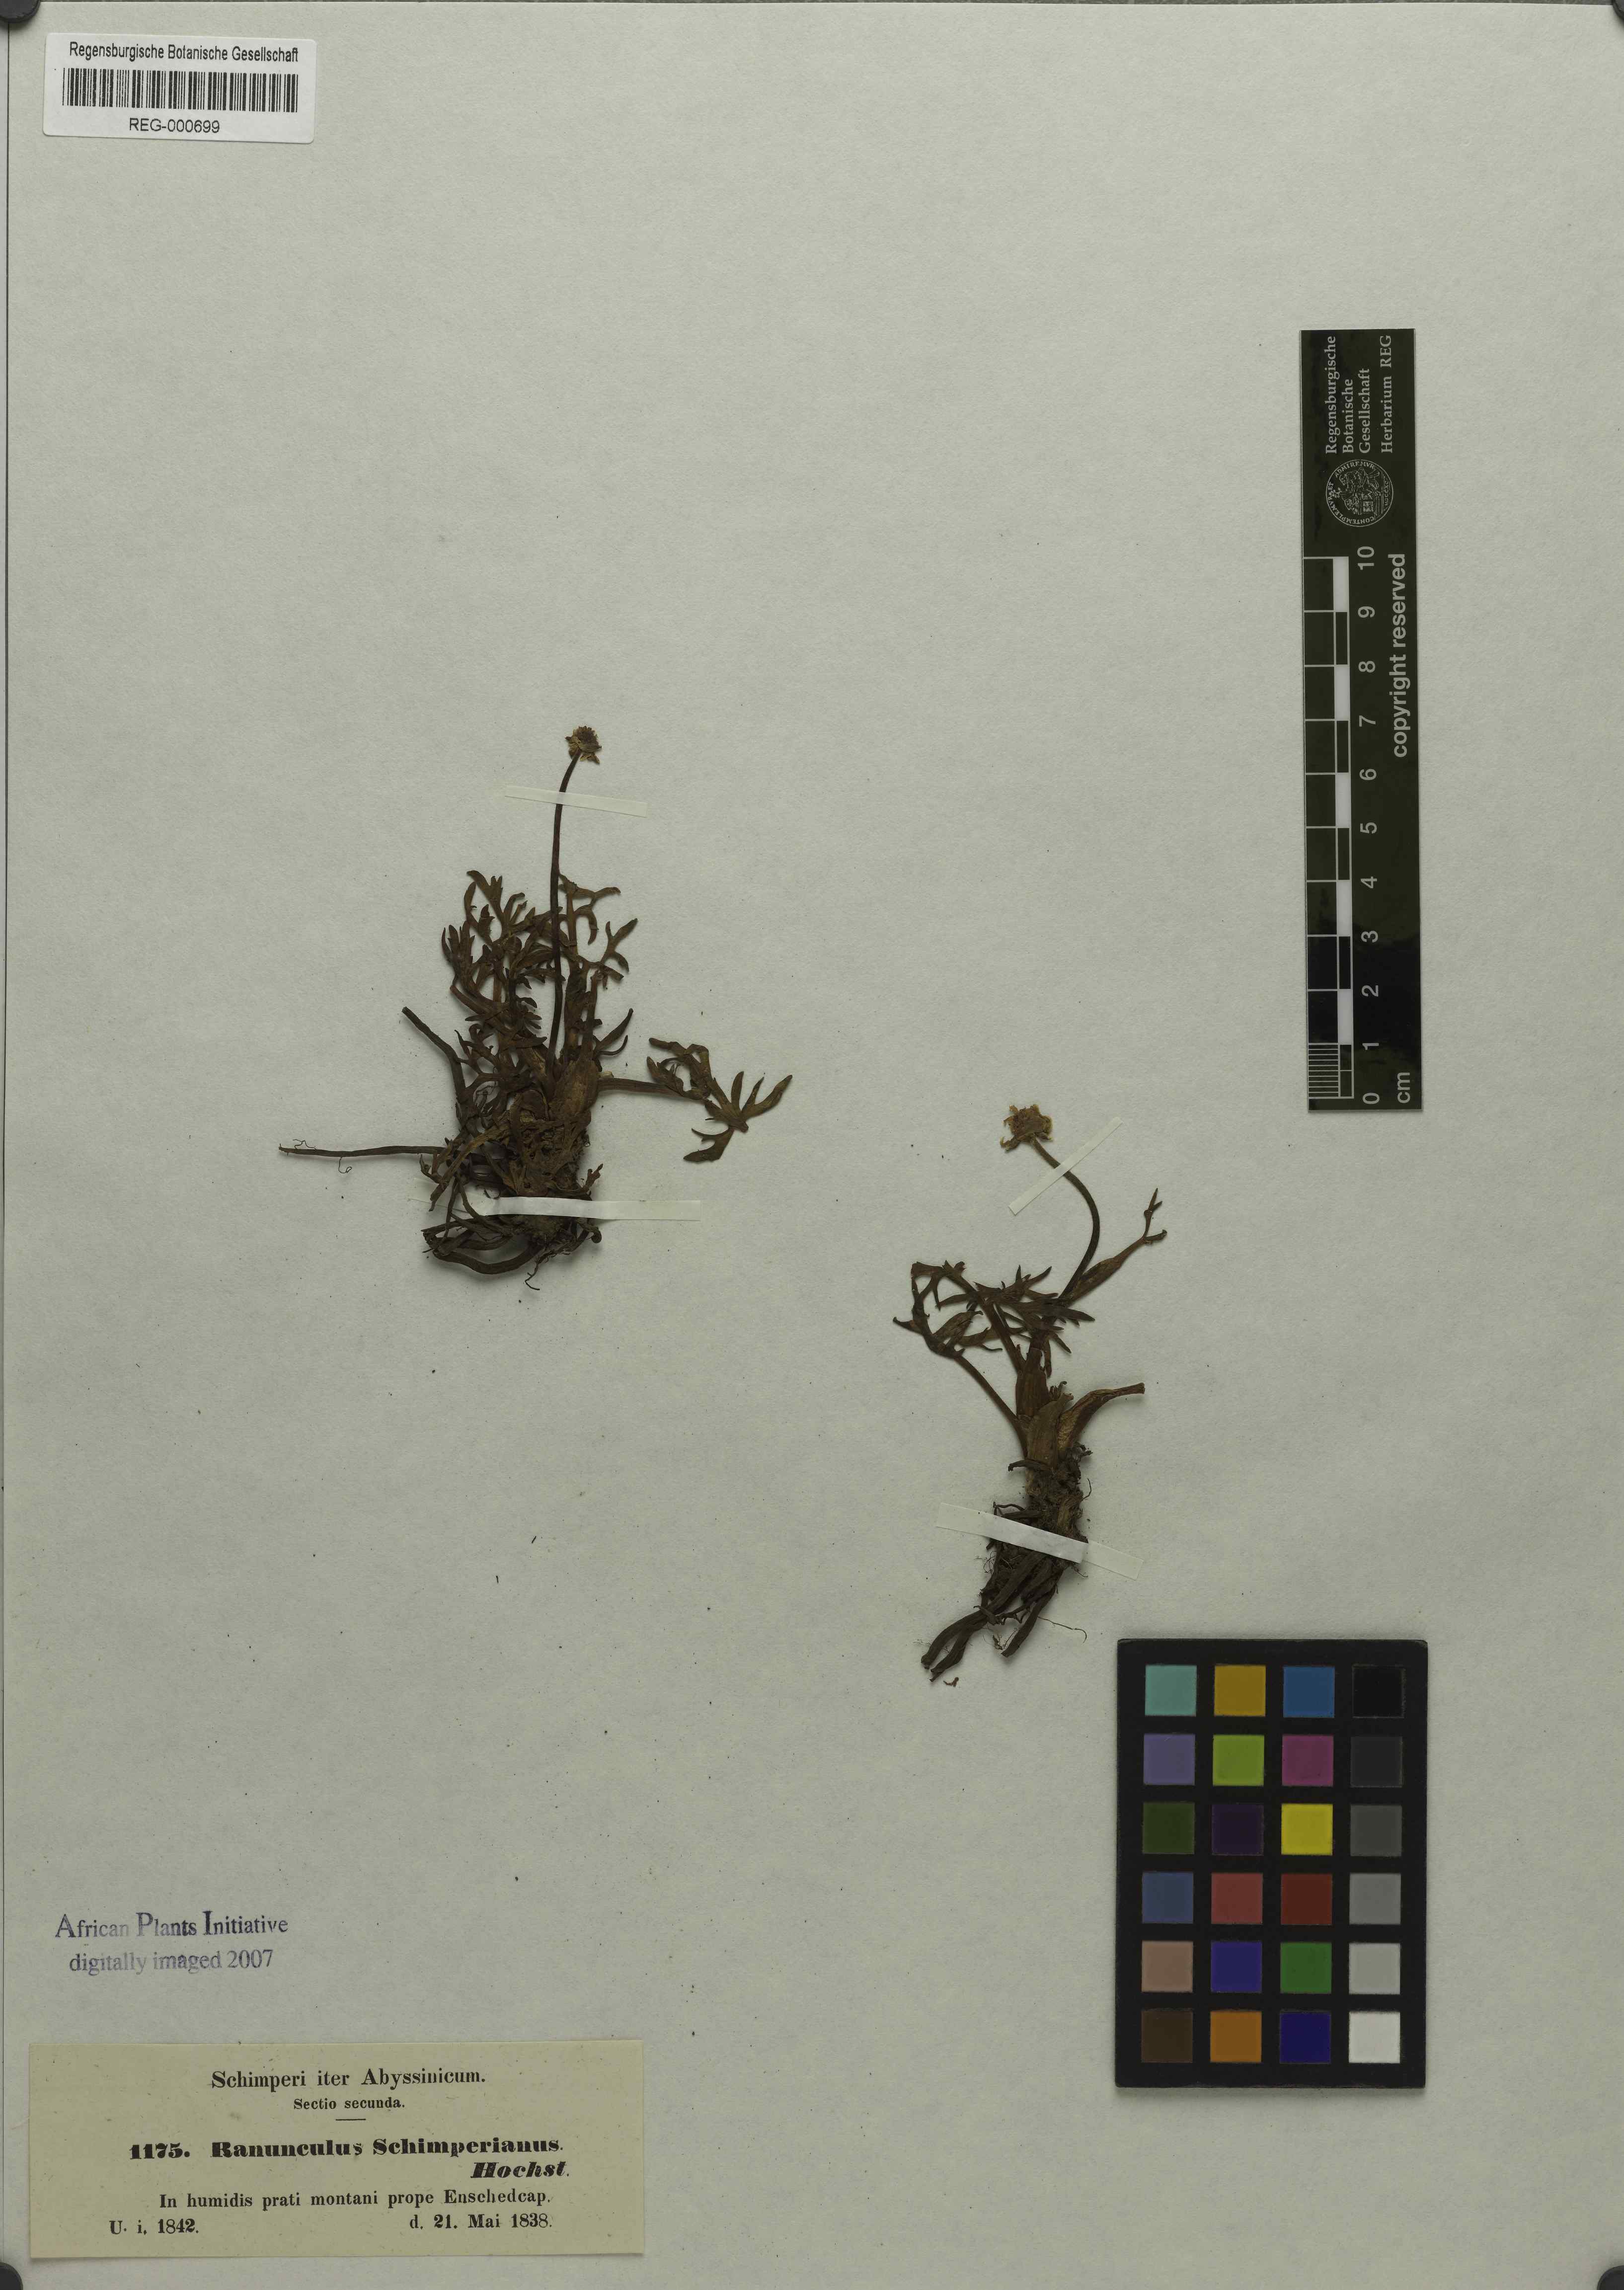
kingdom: Plantae
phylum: Tracheophyta
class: Magnoliopsida
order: Ranunculales
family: Ranunculaceae
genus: Ranunculus
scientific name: Ranunculus simensis
